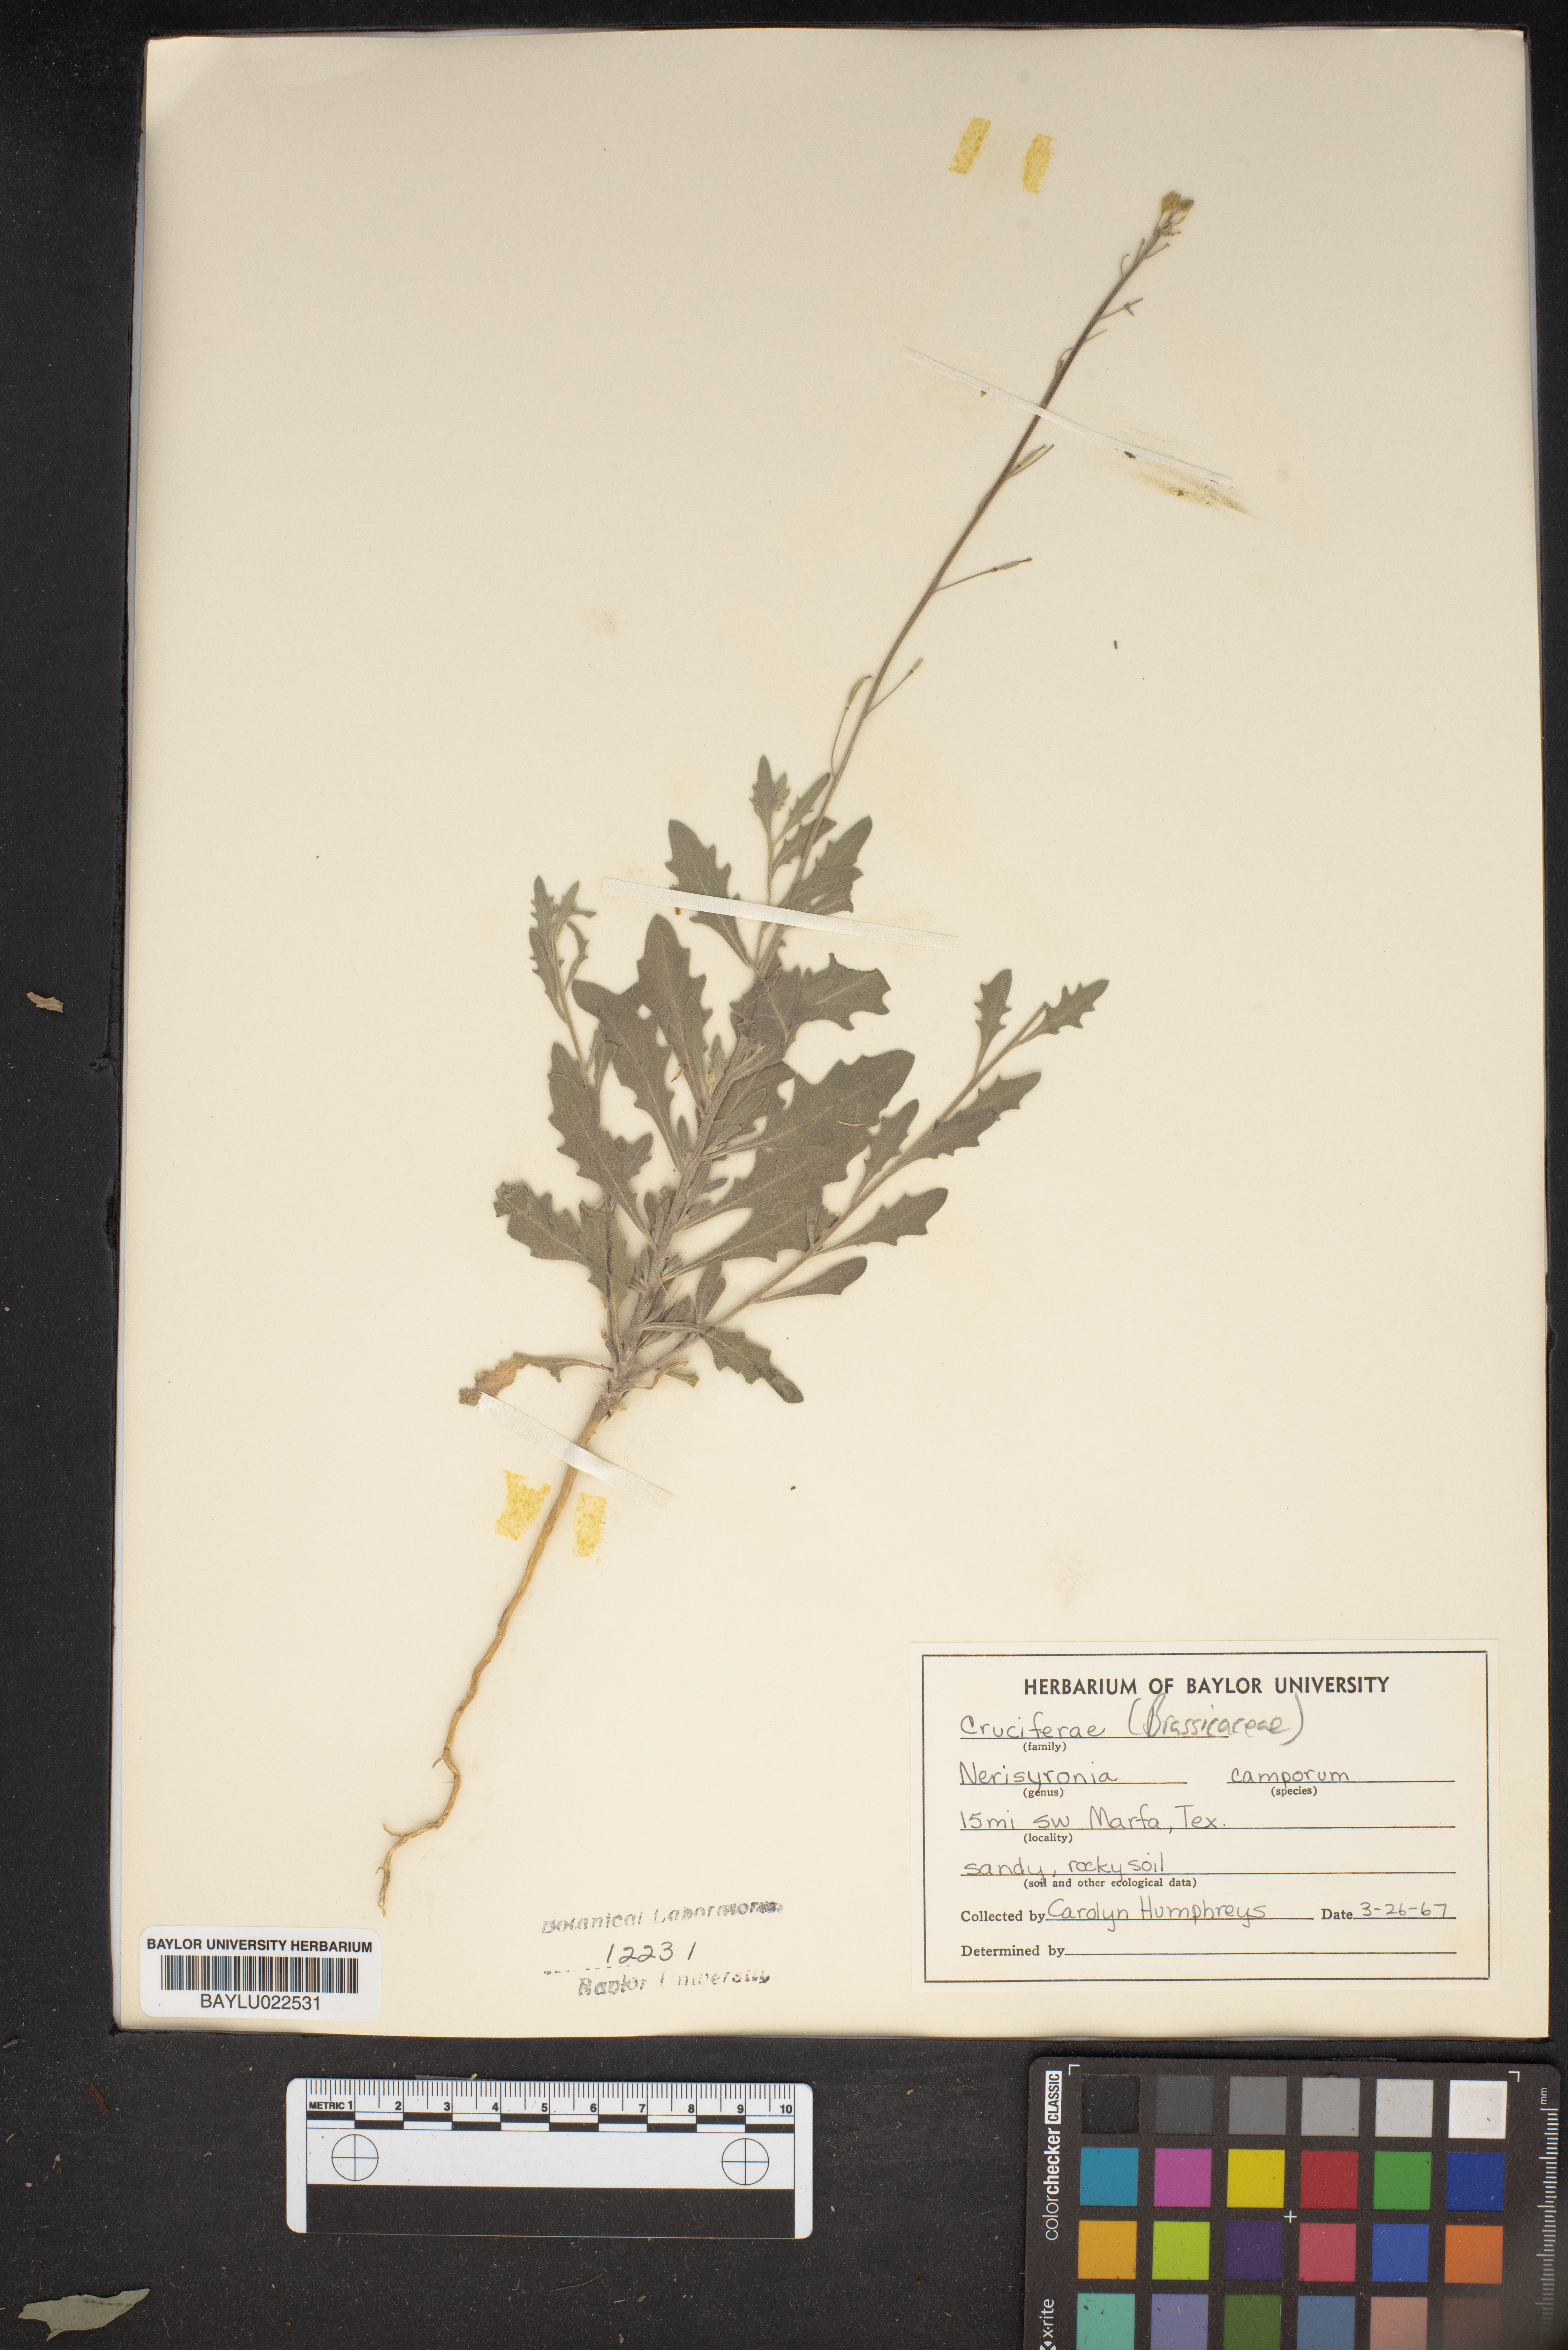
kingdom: Plantae
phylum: Tracheophyta
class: Magnoliopsida
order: Brassicales
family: Brassicaceae
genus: Nerisyrenia
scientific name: Nerisyrenia camporum
